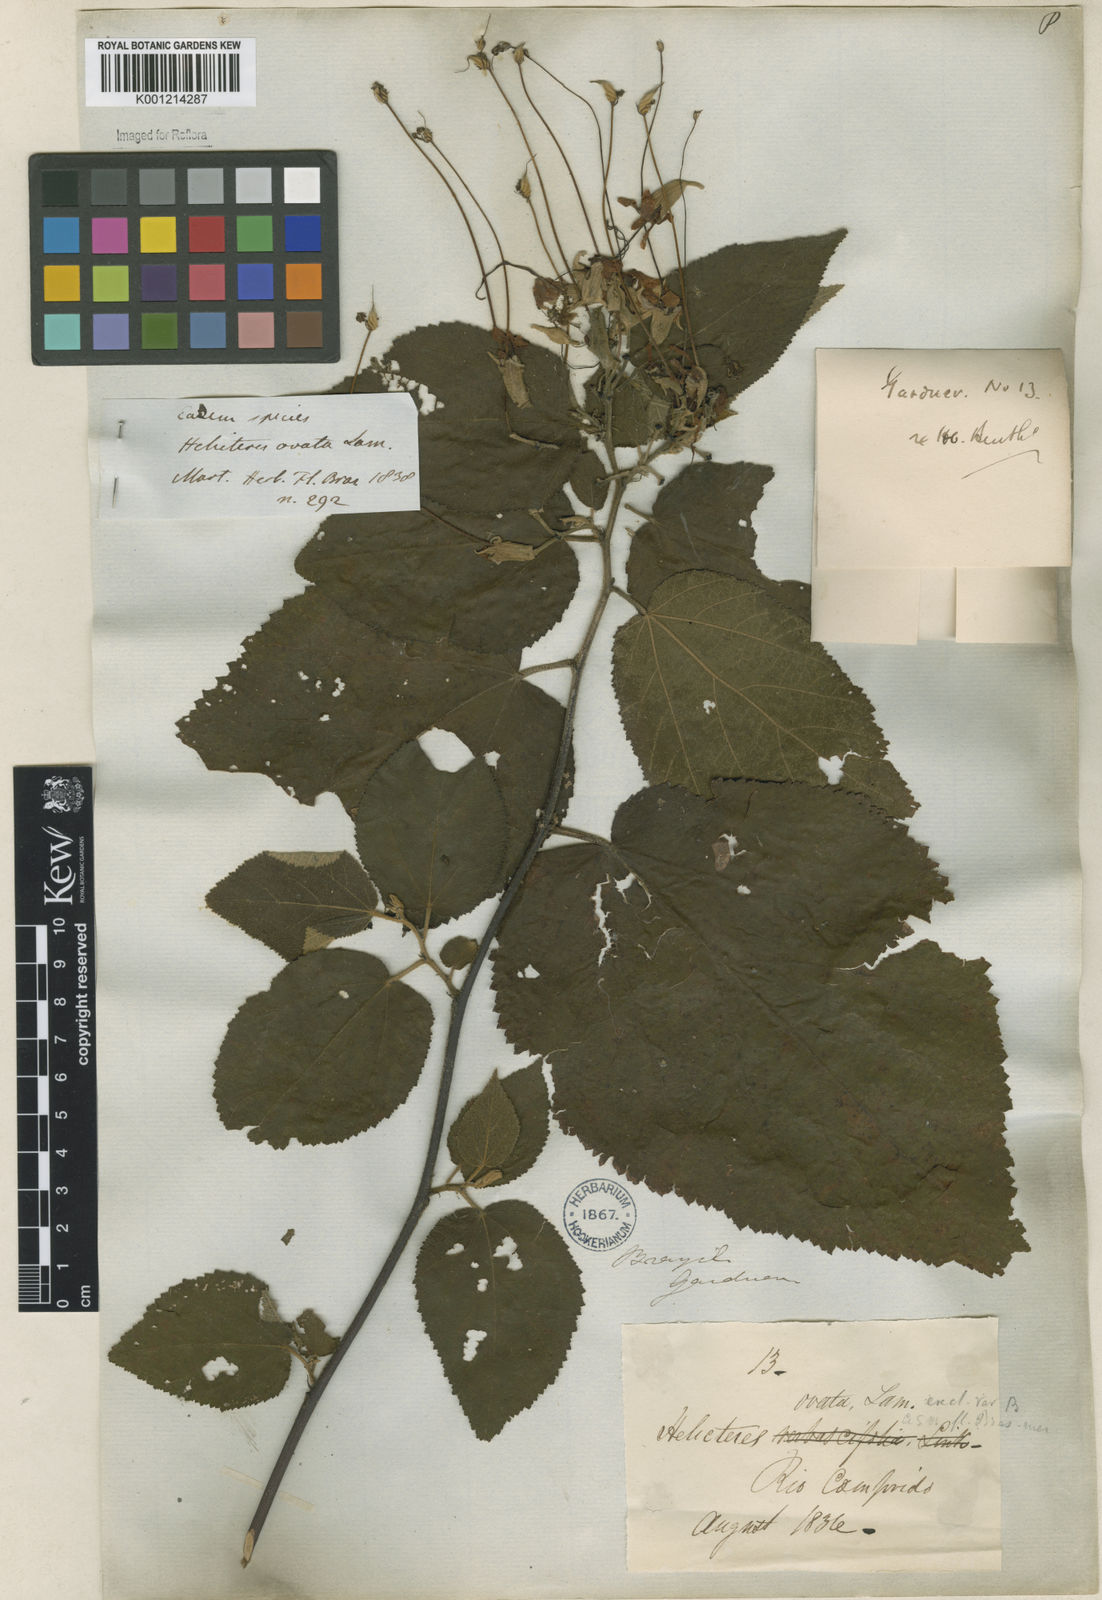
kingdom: Plantae
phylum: Tracheophyta
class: Magnoliopsida
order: Malvales
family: Malvaceae
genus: Helicteres
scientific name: Helicteres ovata
